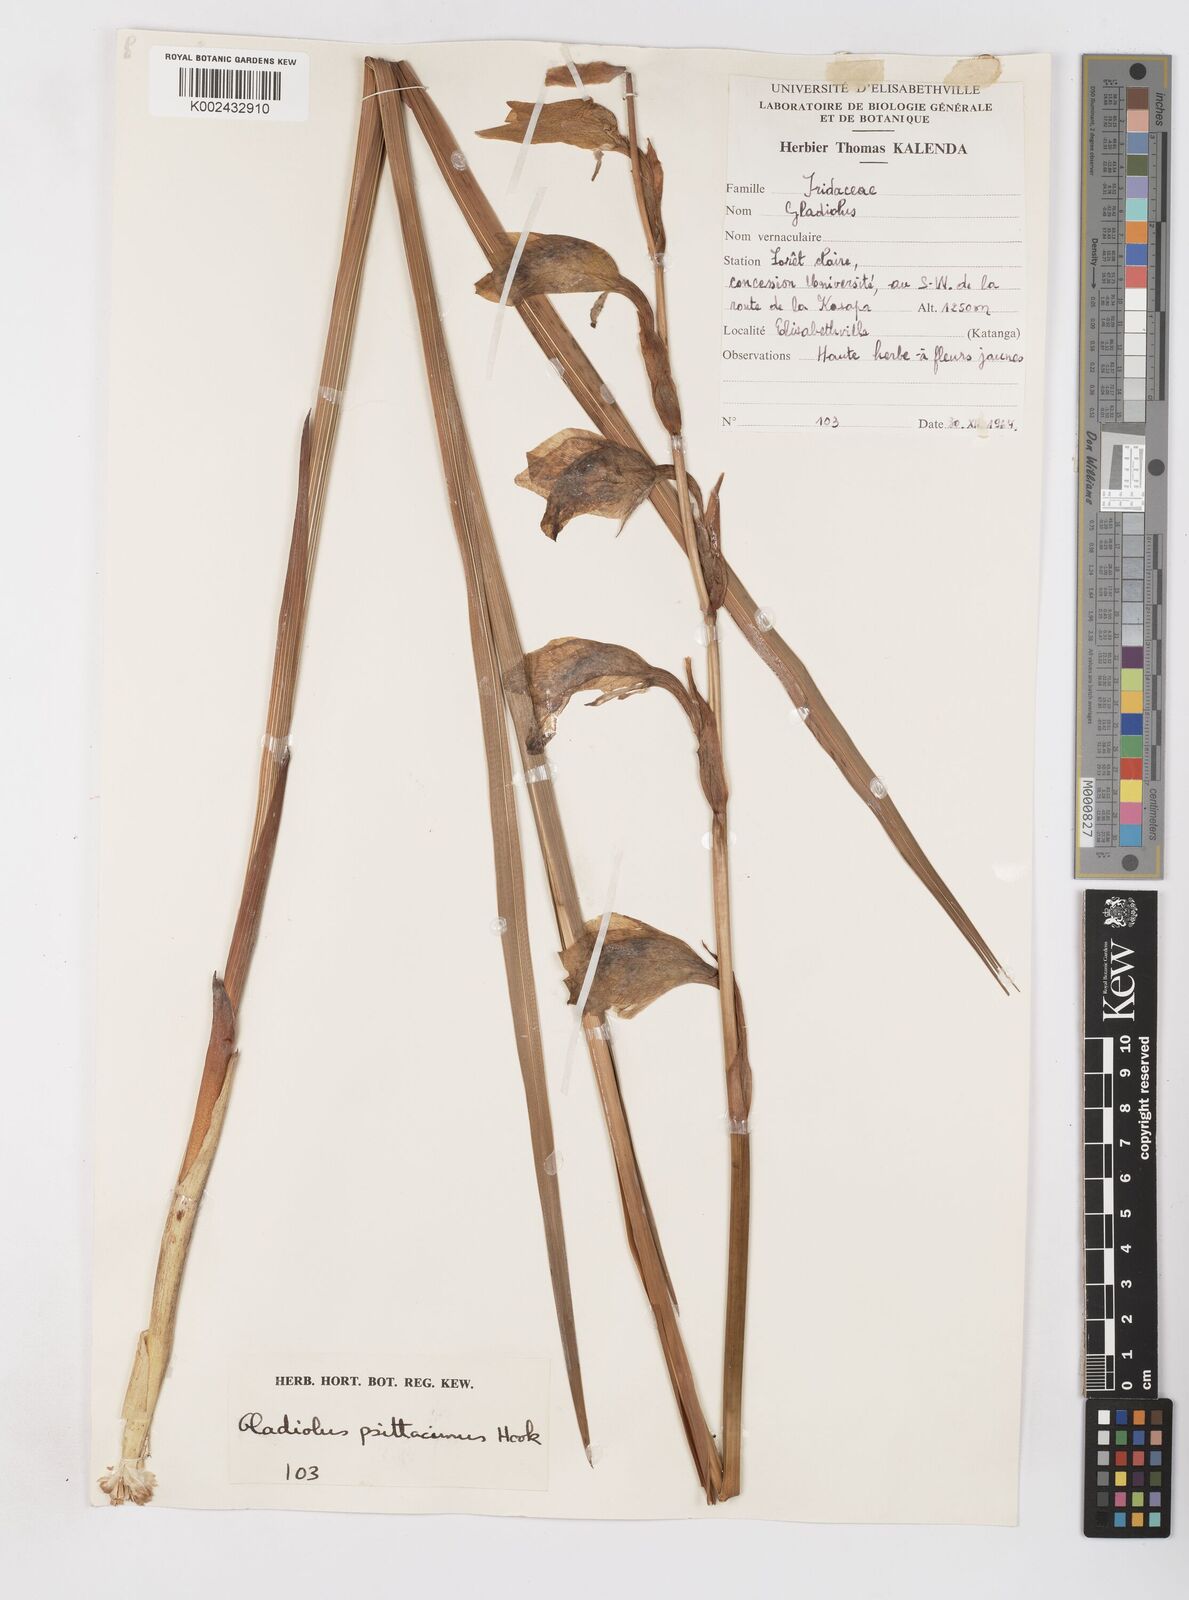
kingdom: Plantae
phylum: Tracheophyta
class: Liliopsida
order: Asparagales
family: Iridaceae
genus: Gladiolus
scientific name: Gladiolus dalenii
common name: Cornflag
